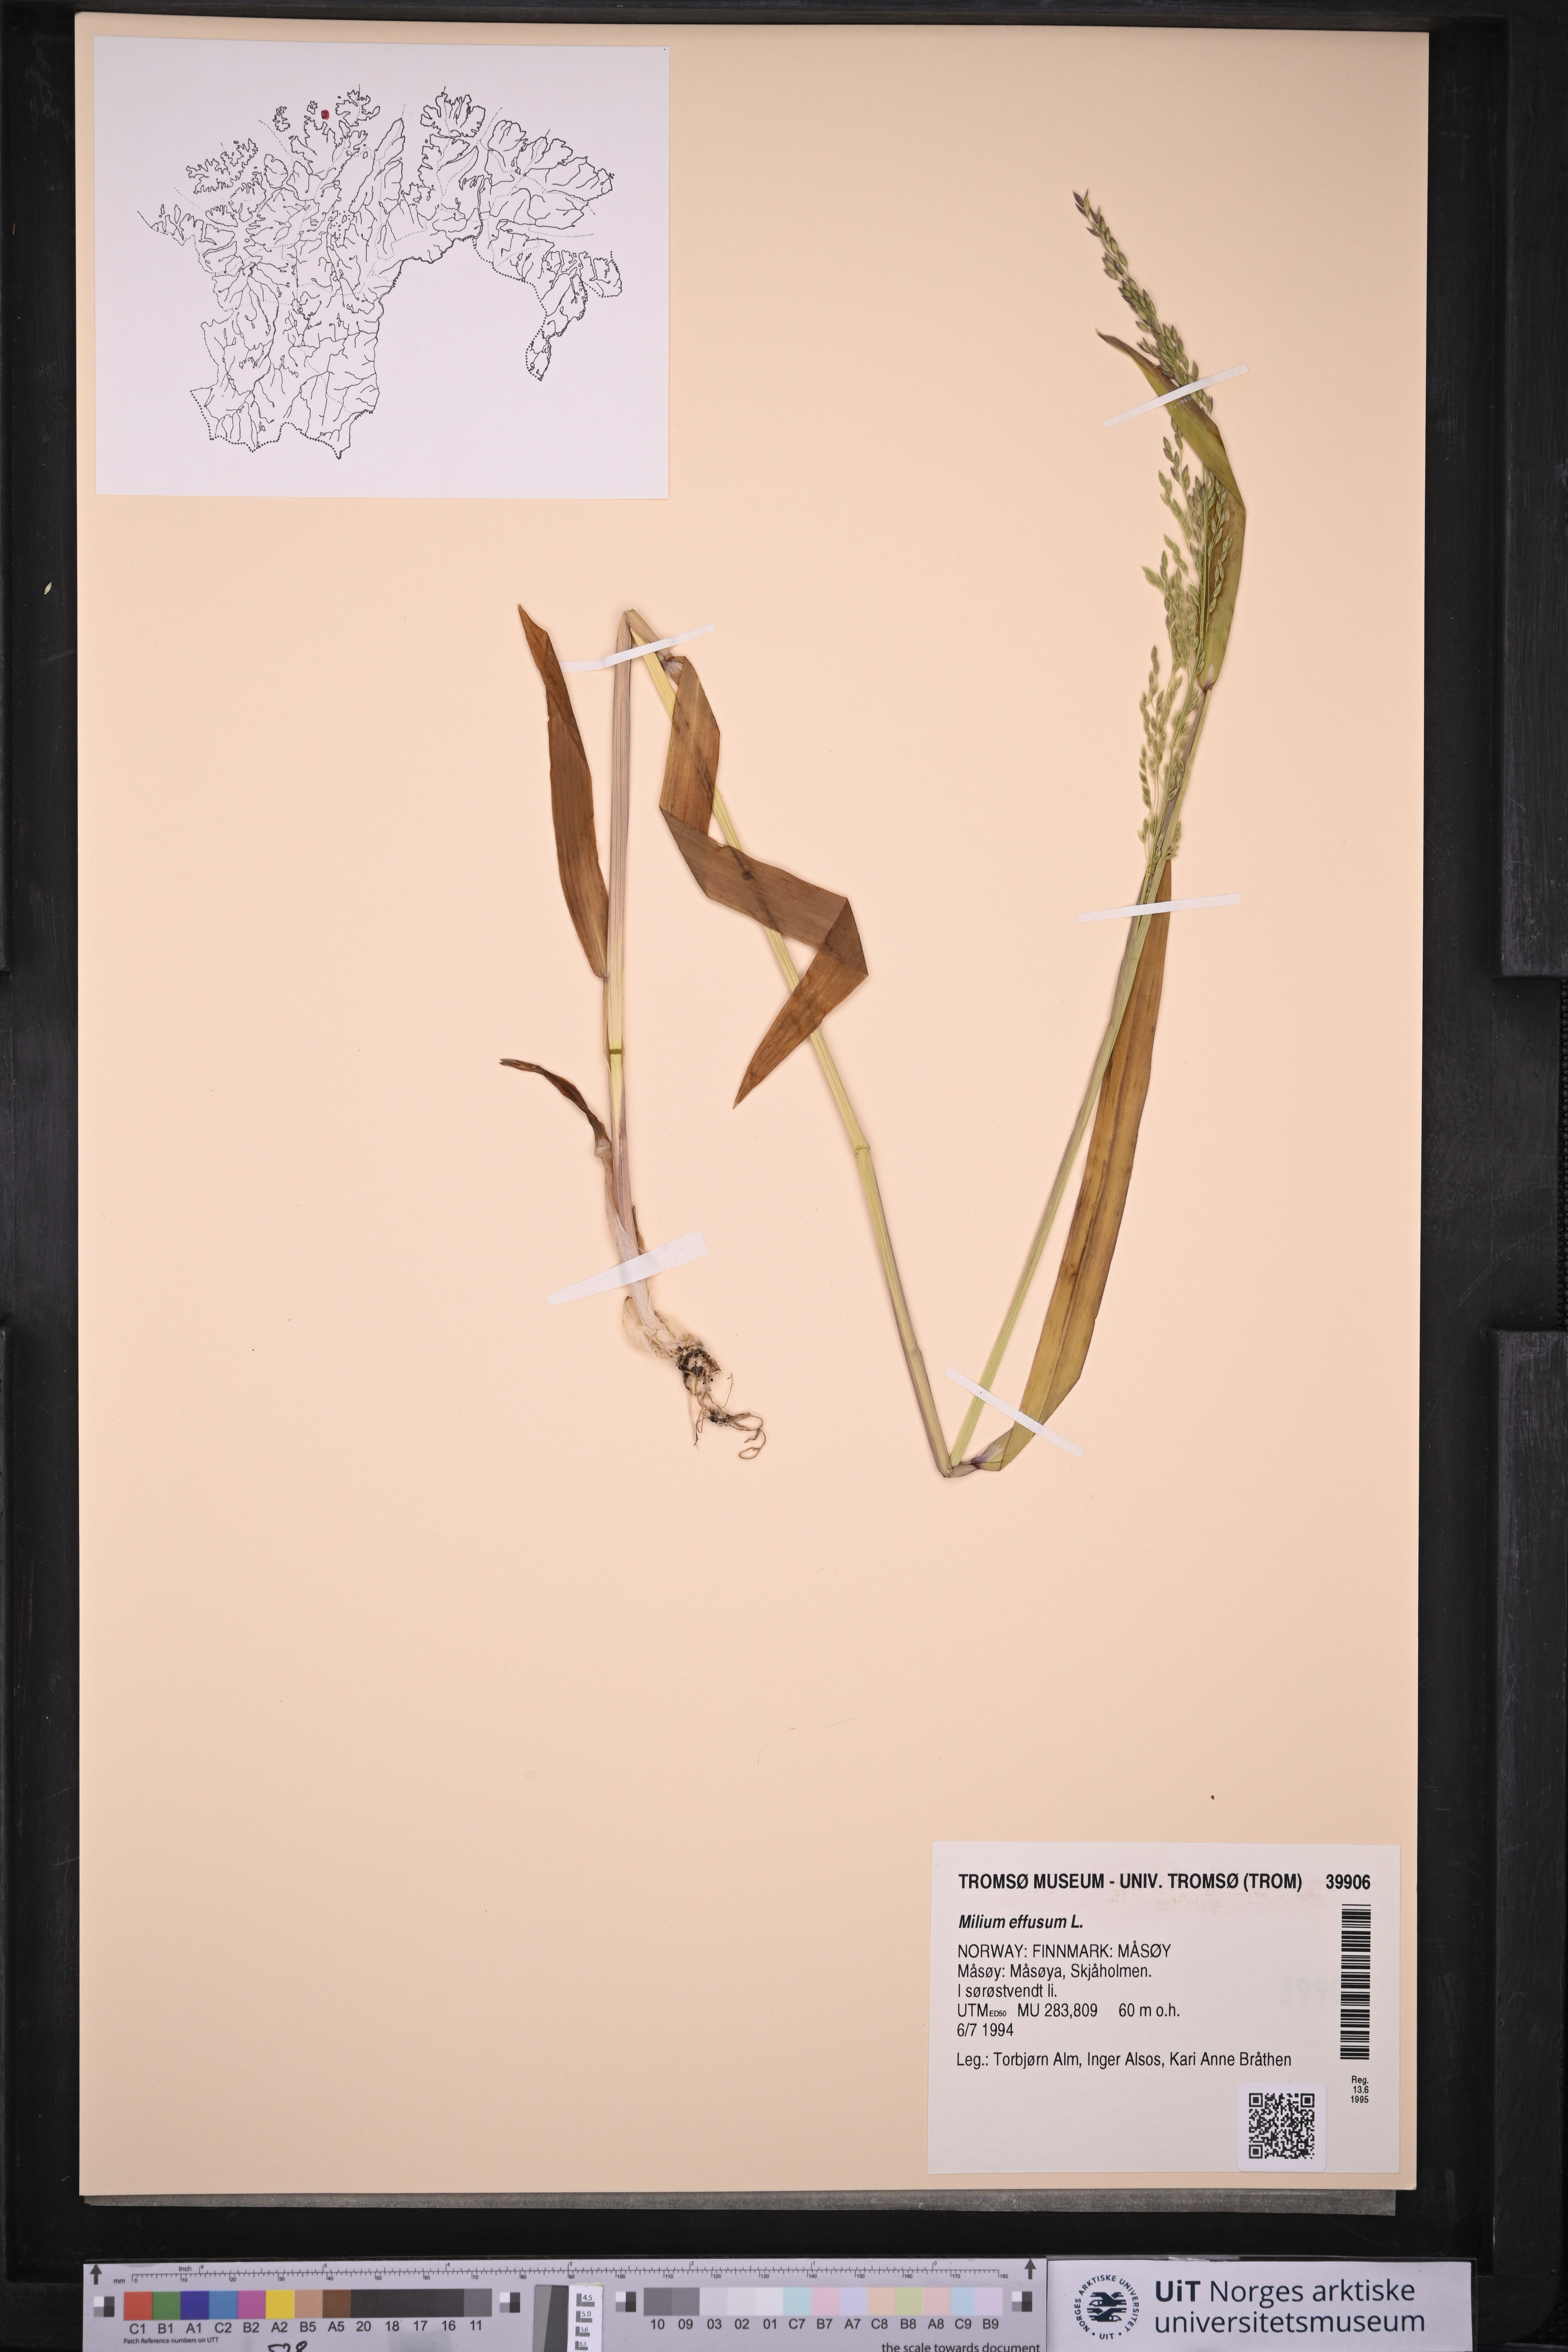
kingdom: Plantae
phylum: Tracheophyta
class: Liliopsida
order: Poales
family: Poaceae
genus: Milium
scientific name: Milium effusum
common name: Wood millet
